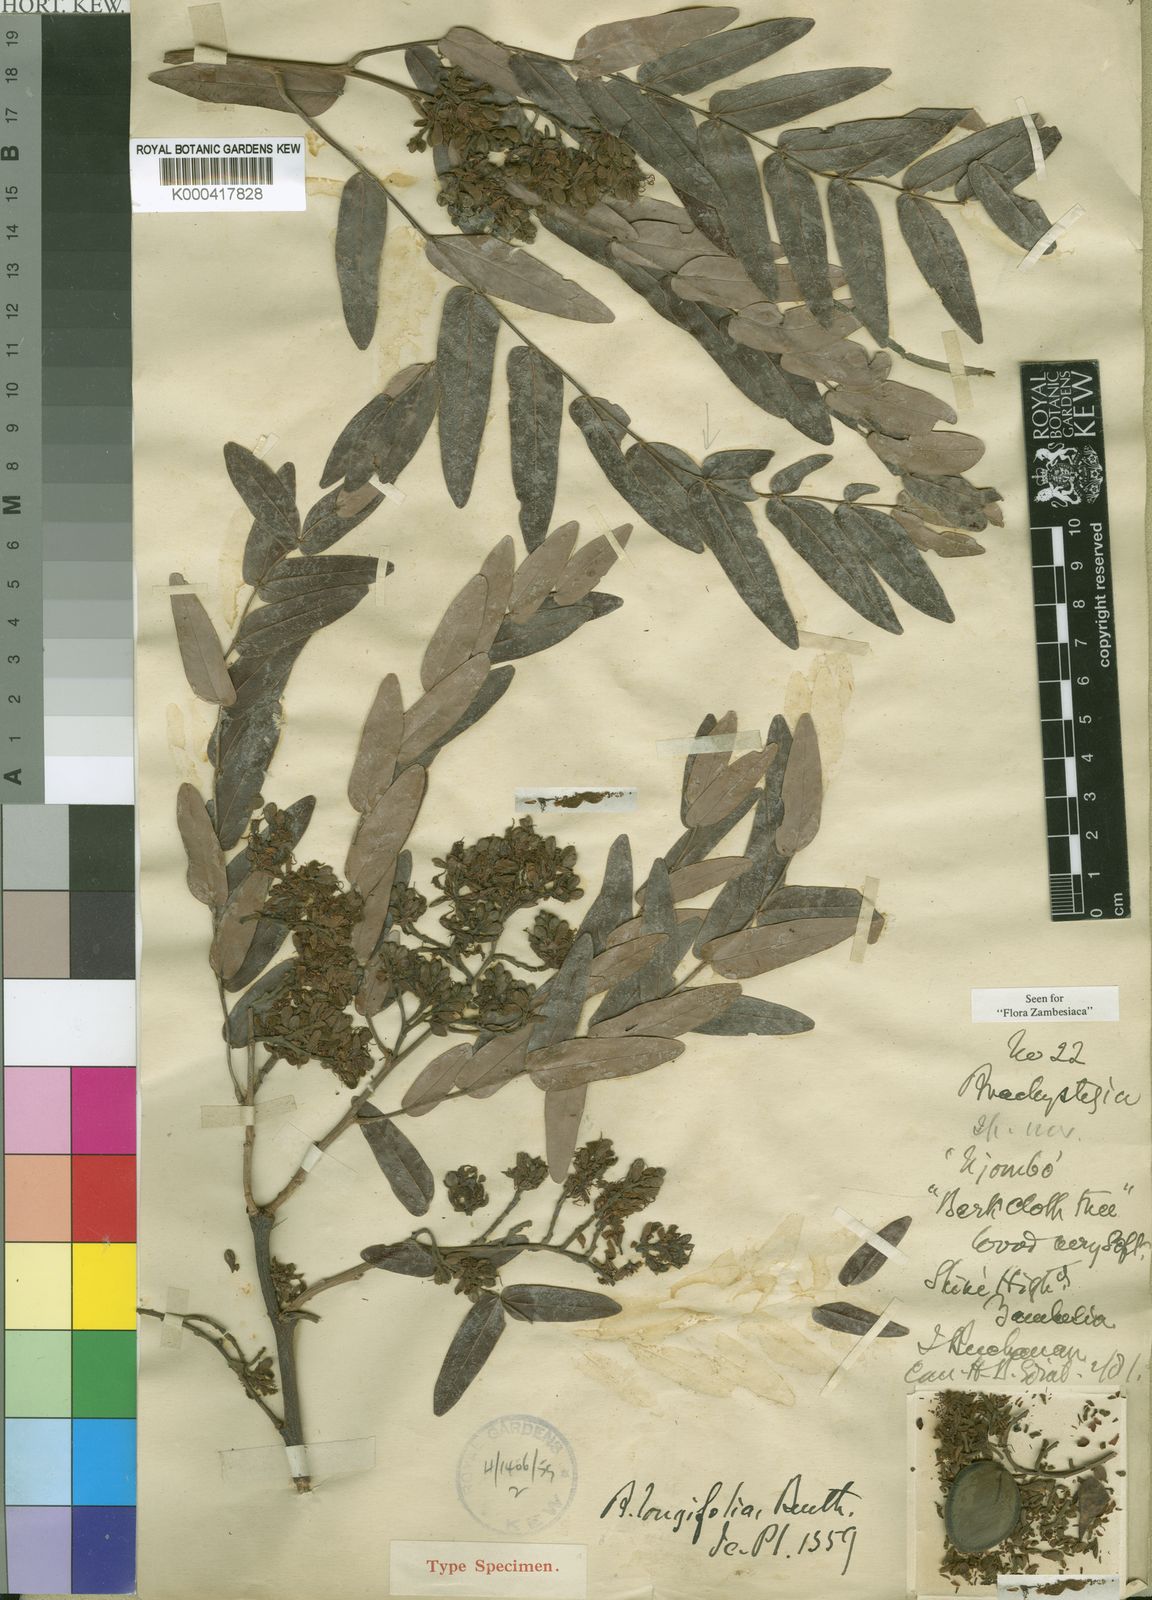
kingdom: Plantae
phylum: Tracheophyta
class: Magnoliopsida
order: Fabales
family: Fabaceae
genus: Brachystegia
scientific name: Brachystegia longifolia
